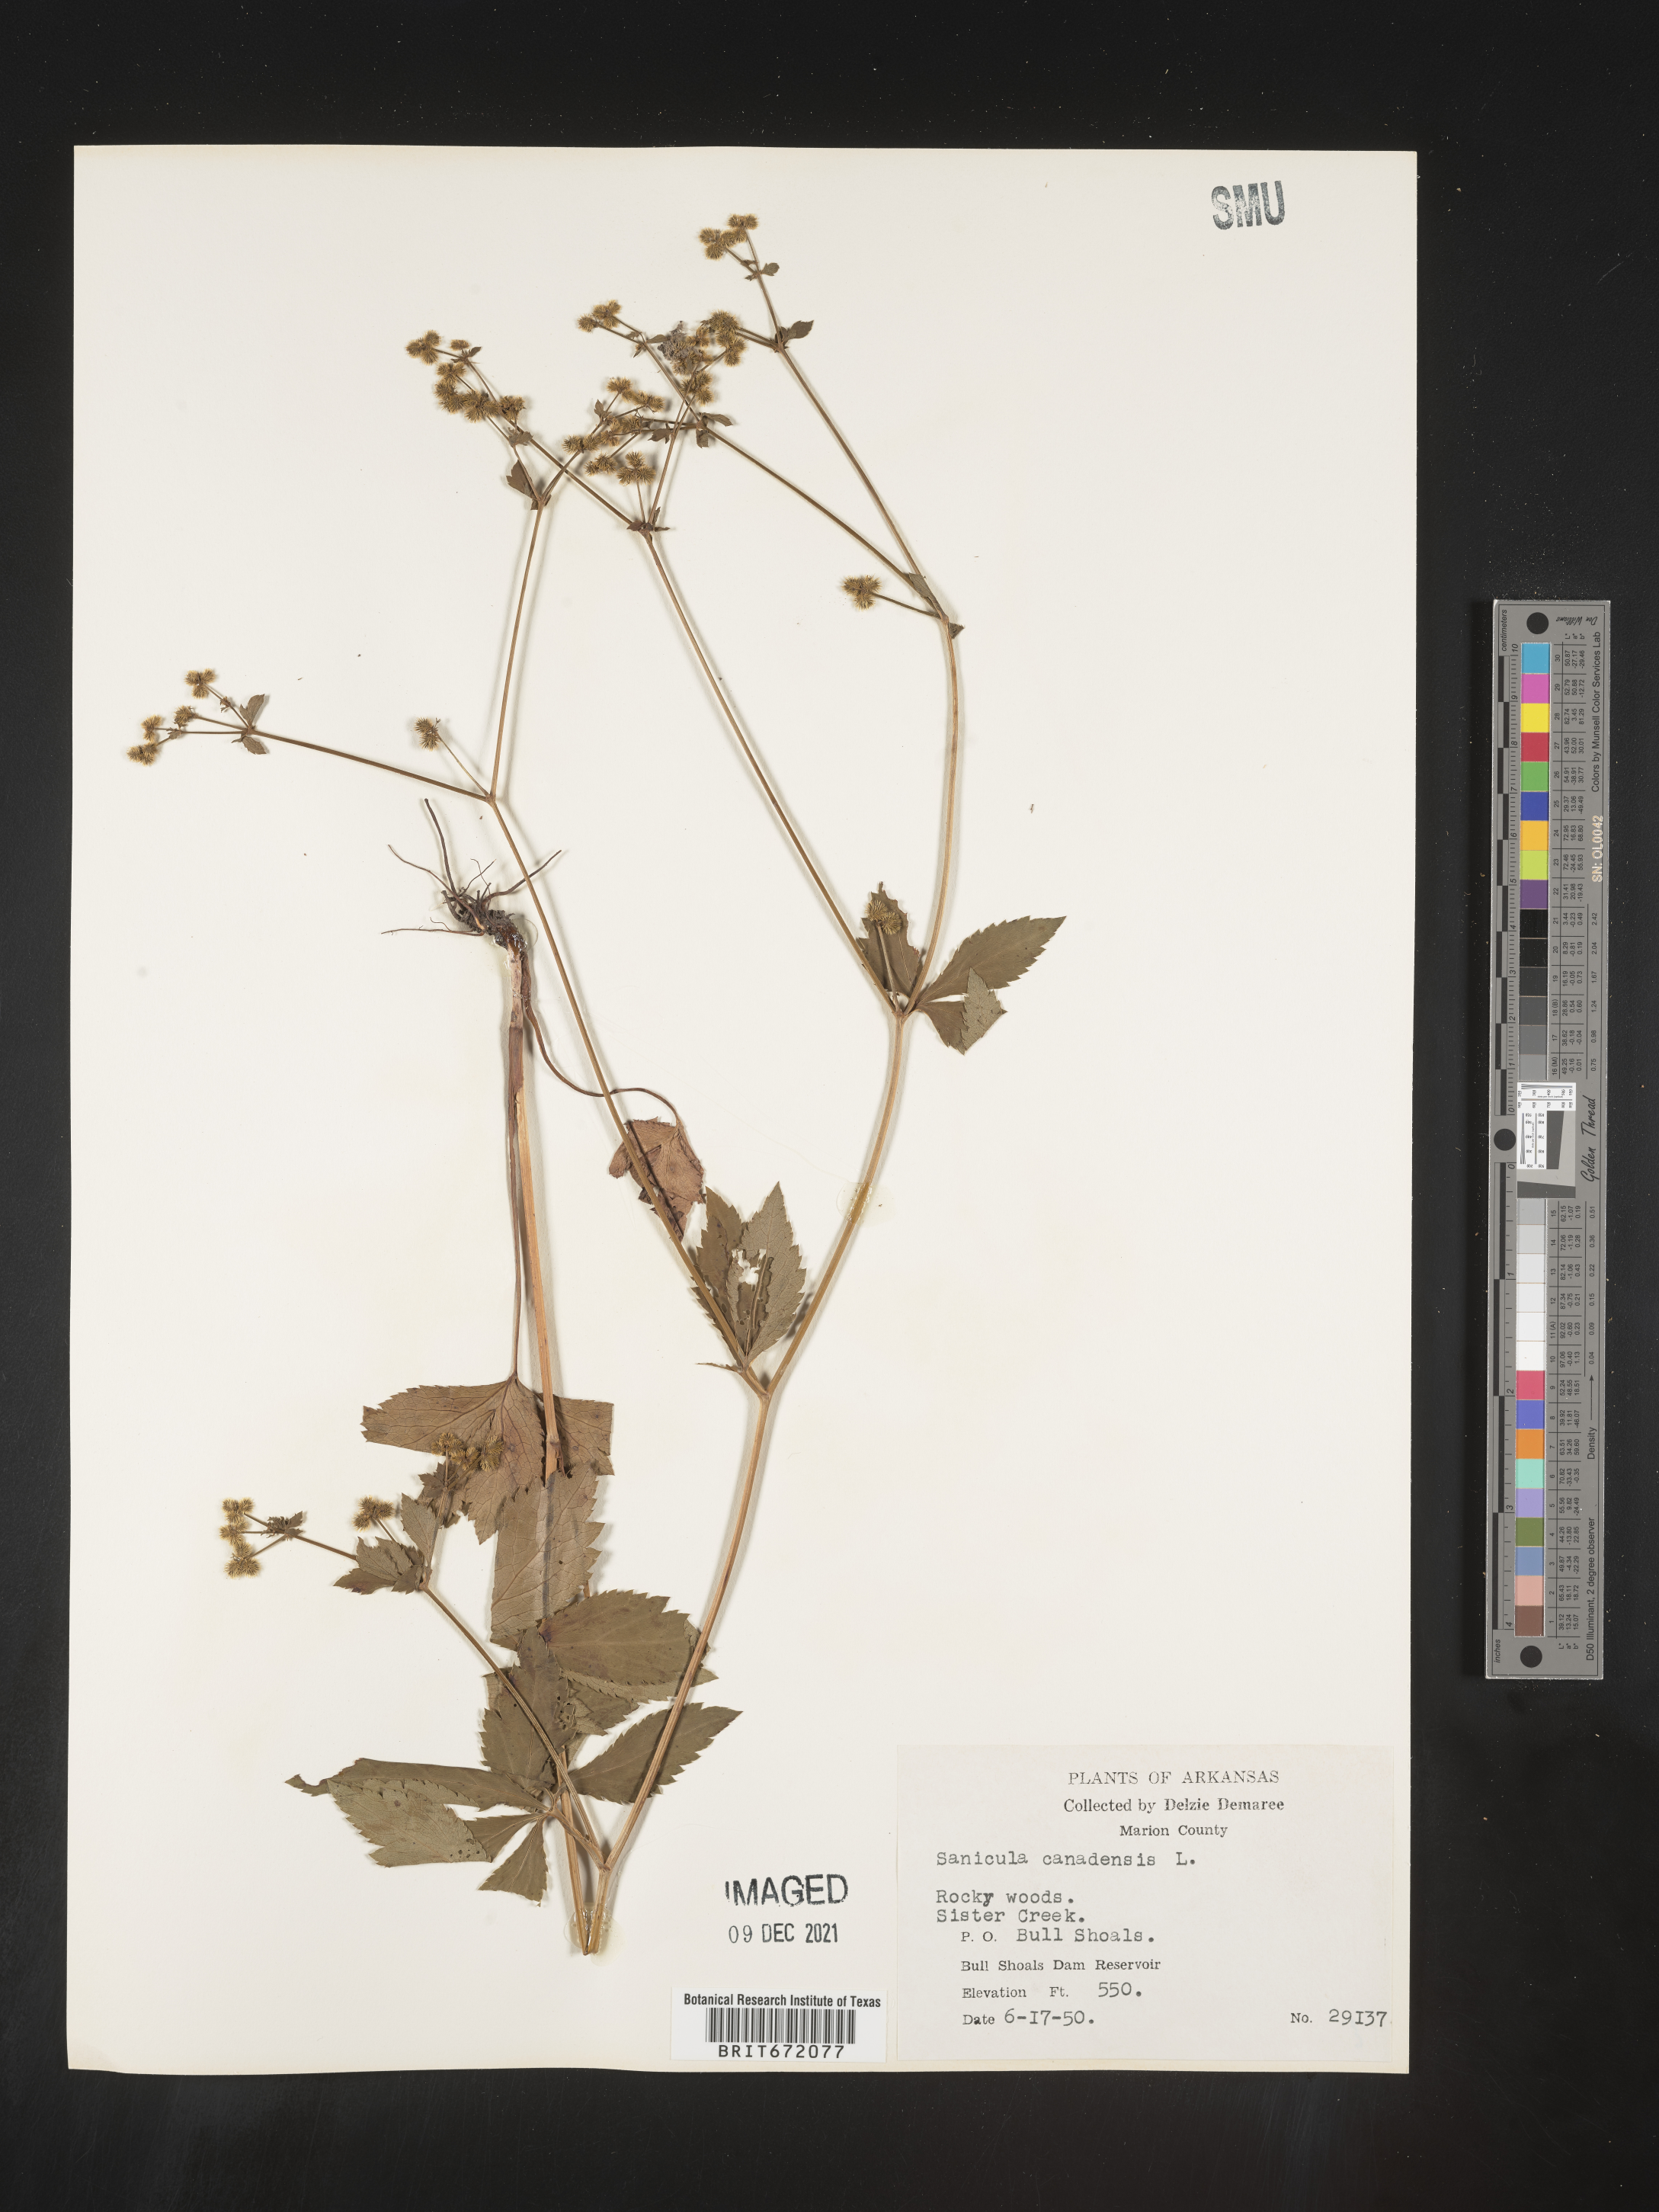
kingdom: Plantae
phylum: Tracheophyta
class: Magnoliopsida
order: Apiales
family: Apiaceae
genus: Sanicula
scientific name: Sanicula canadensis
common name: Canada sanicle
